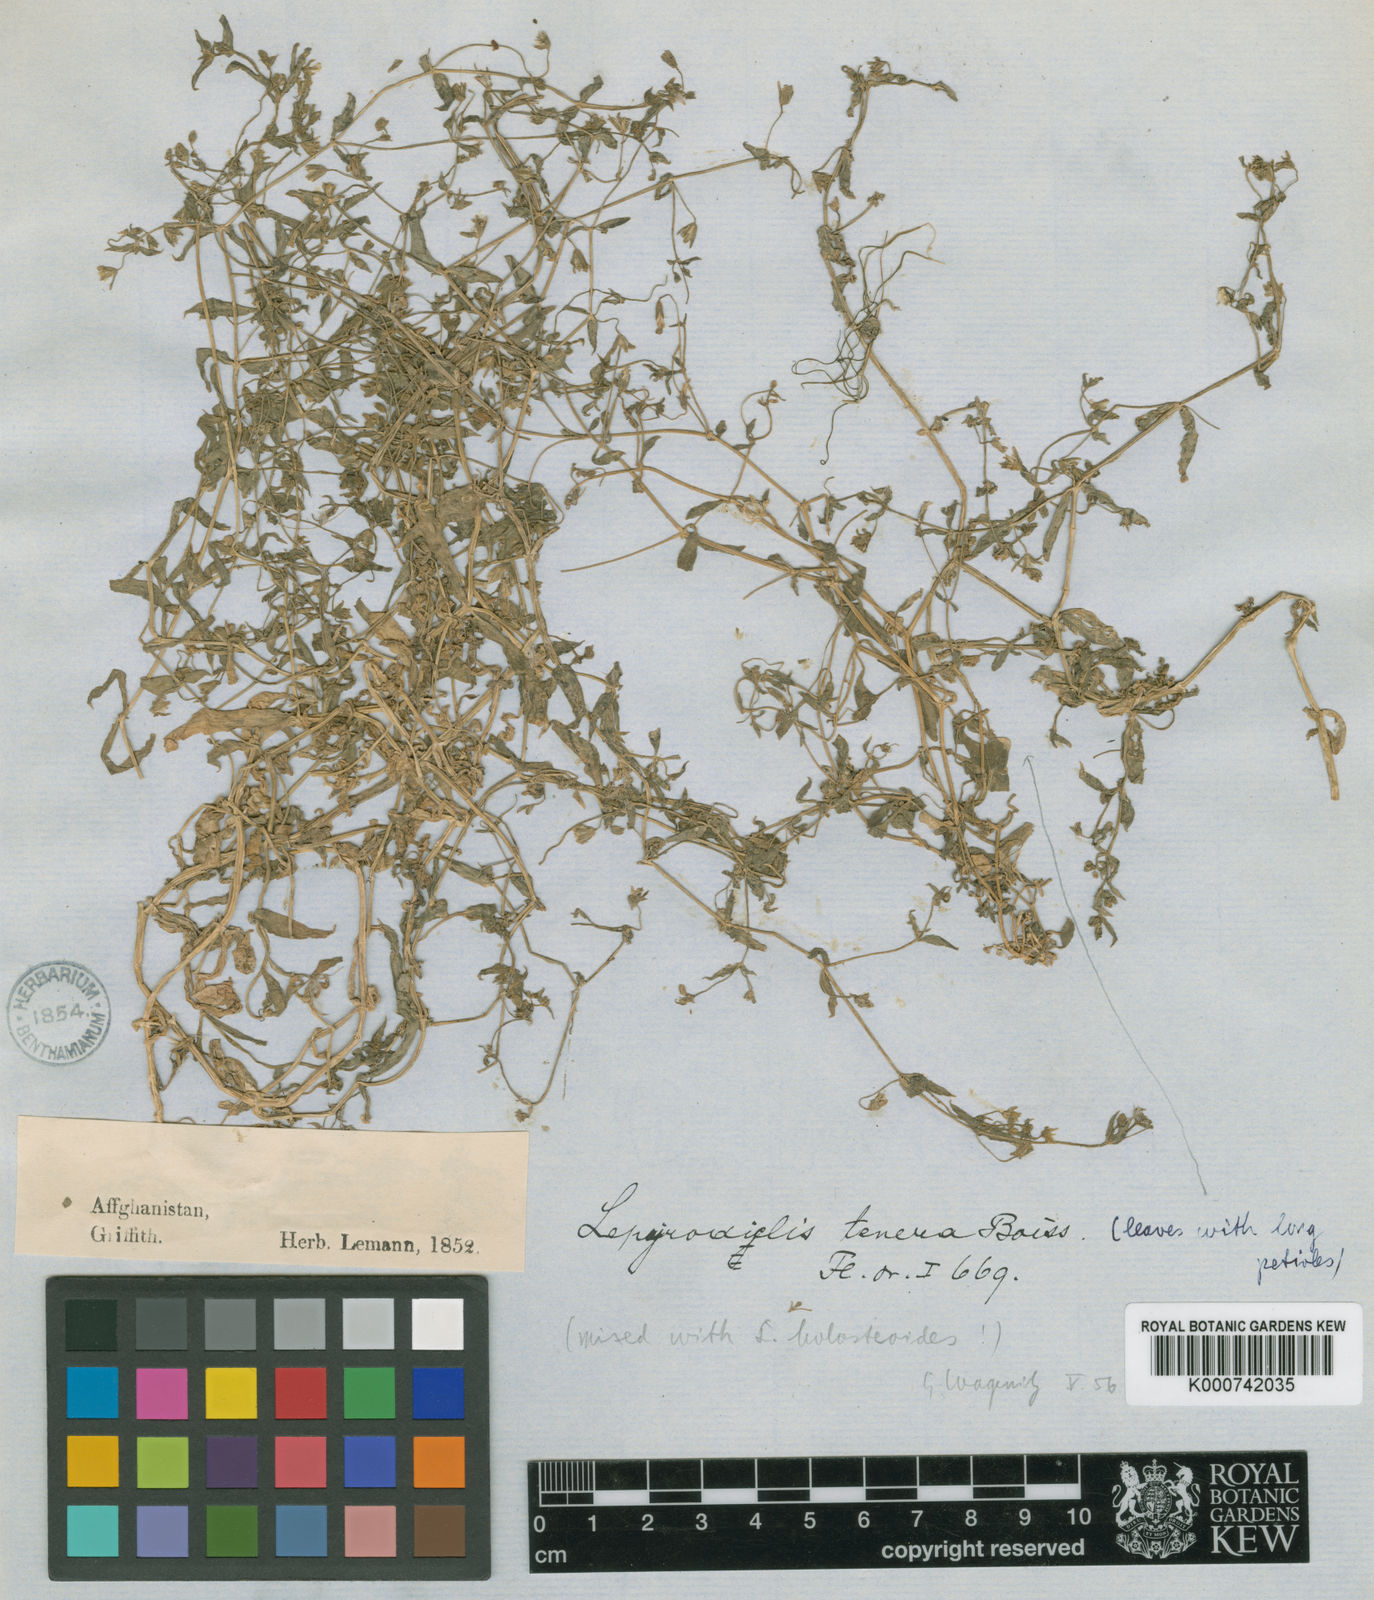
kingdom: Plantae
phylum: Tracheophyta
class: Magnoliopsida
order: Caryophyllales
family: Caryophyllaceae
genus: Lepyrodiclis
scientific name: Lepyrodiclis tenera
